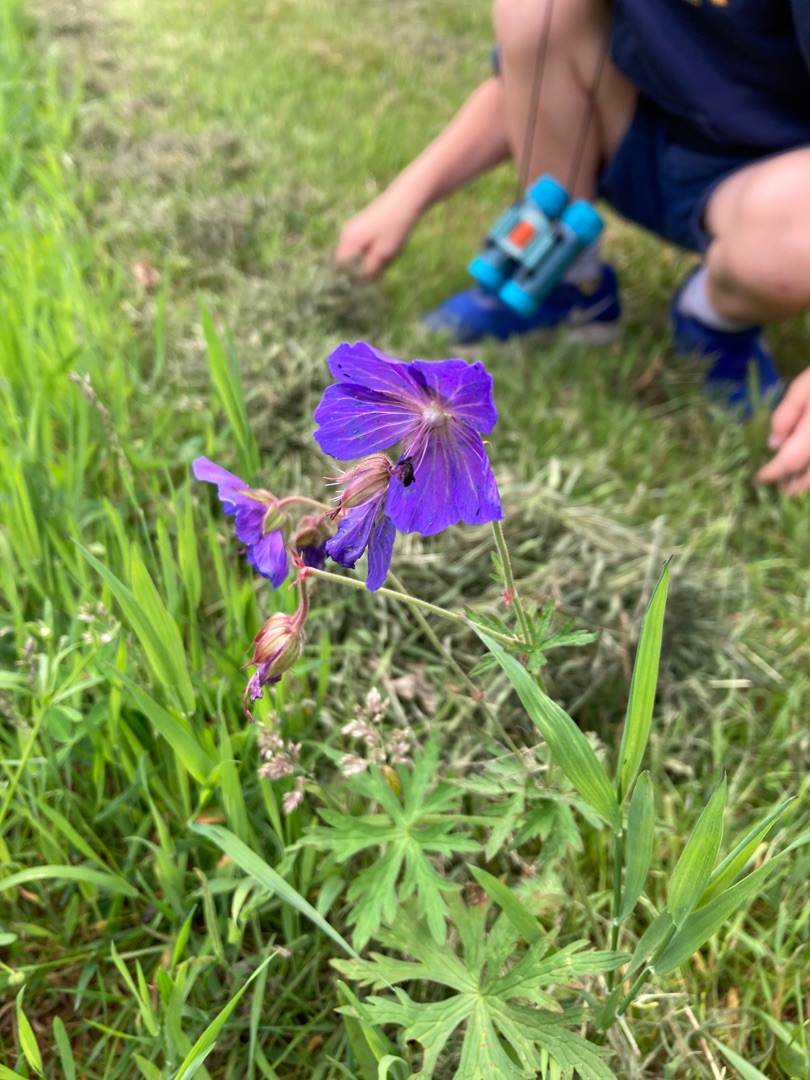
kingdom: Plantae
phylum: Tracheophyta
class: Magnoliopsida
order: Geraniales
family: Geraniaceae
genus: Geranium
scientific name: Geranium pratense
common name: Eng-storkenæb
